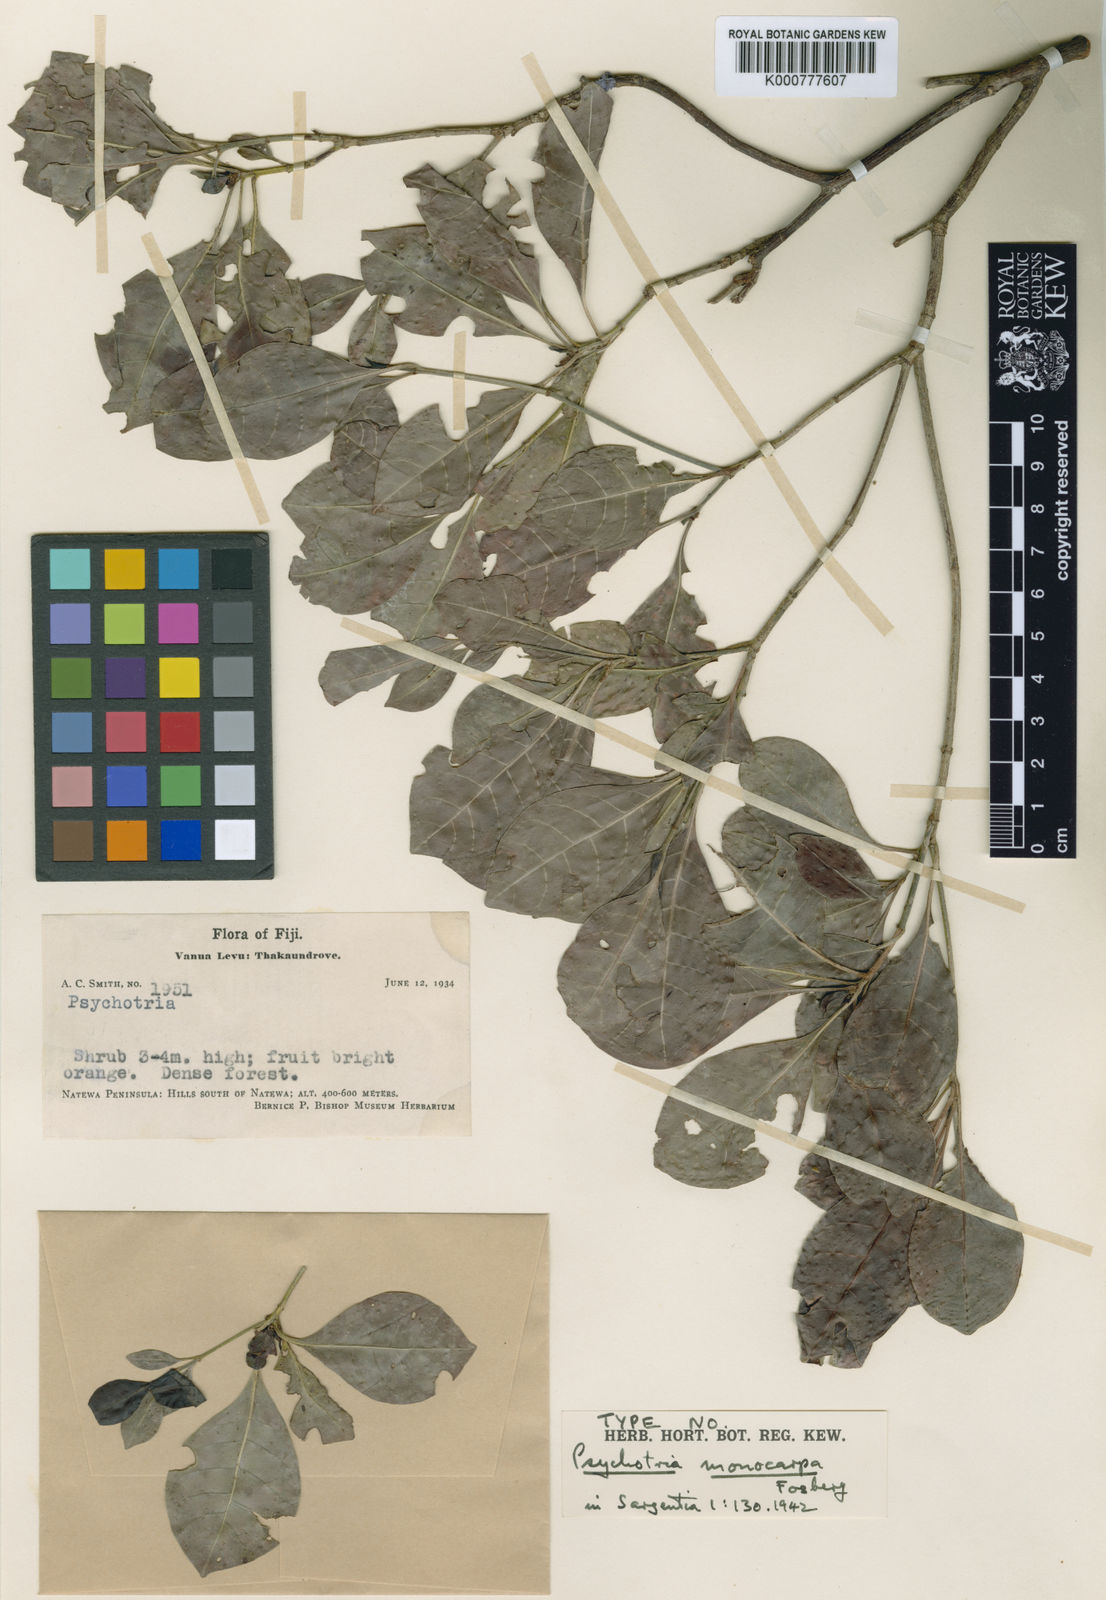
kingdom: Plantae
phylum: Tracheophyta
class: Magnoliopsida
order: Gentianales
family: Rubiaceae
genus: Psychotria
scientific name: Psychotria monocarpa
